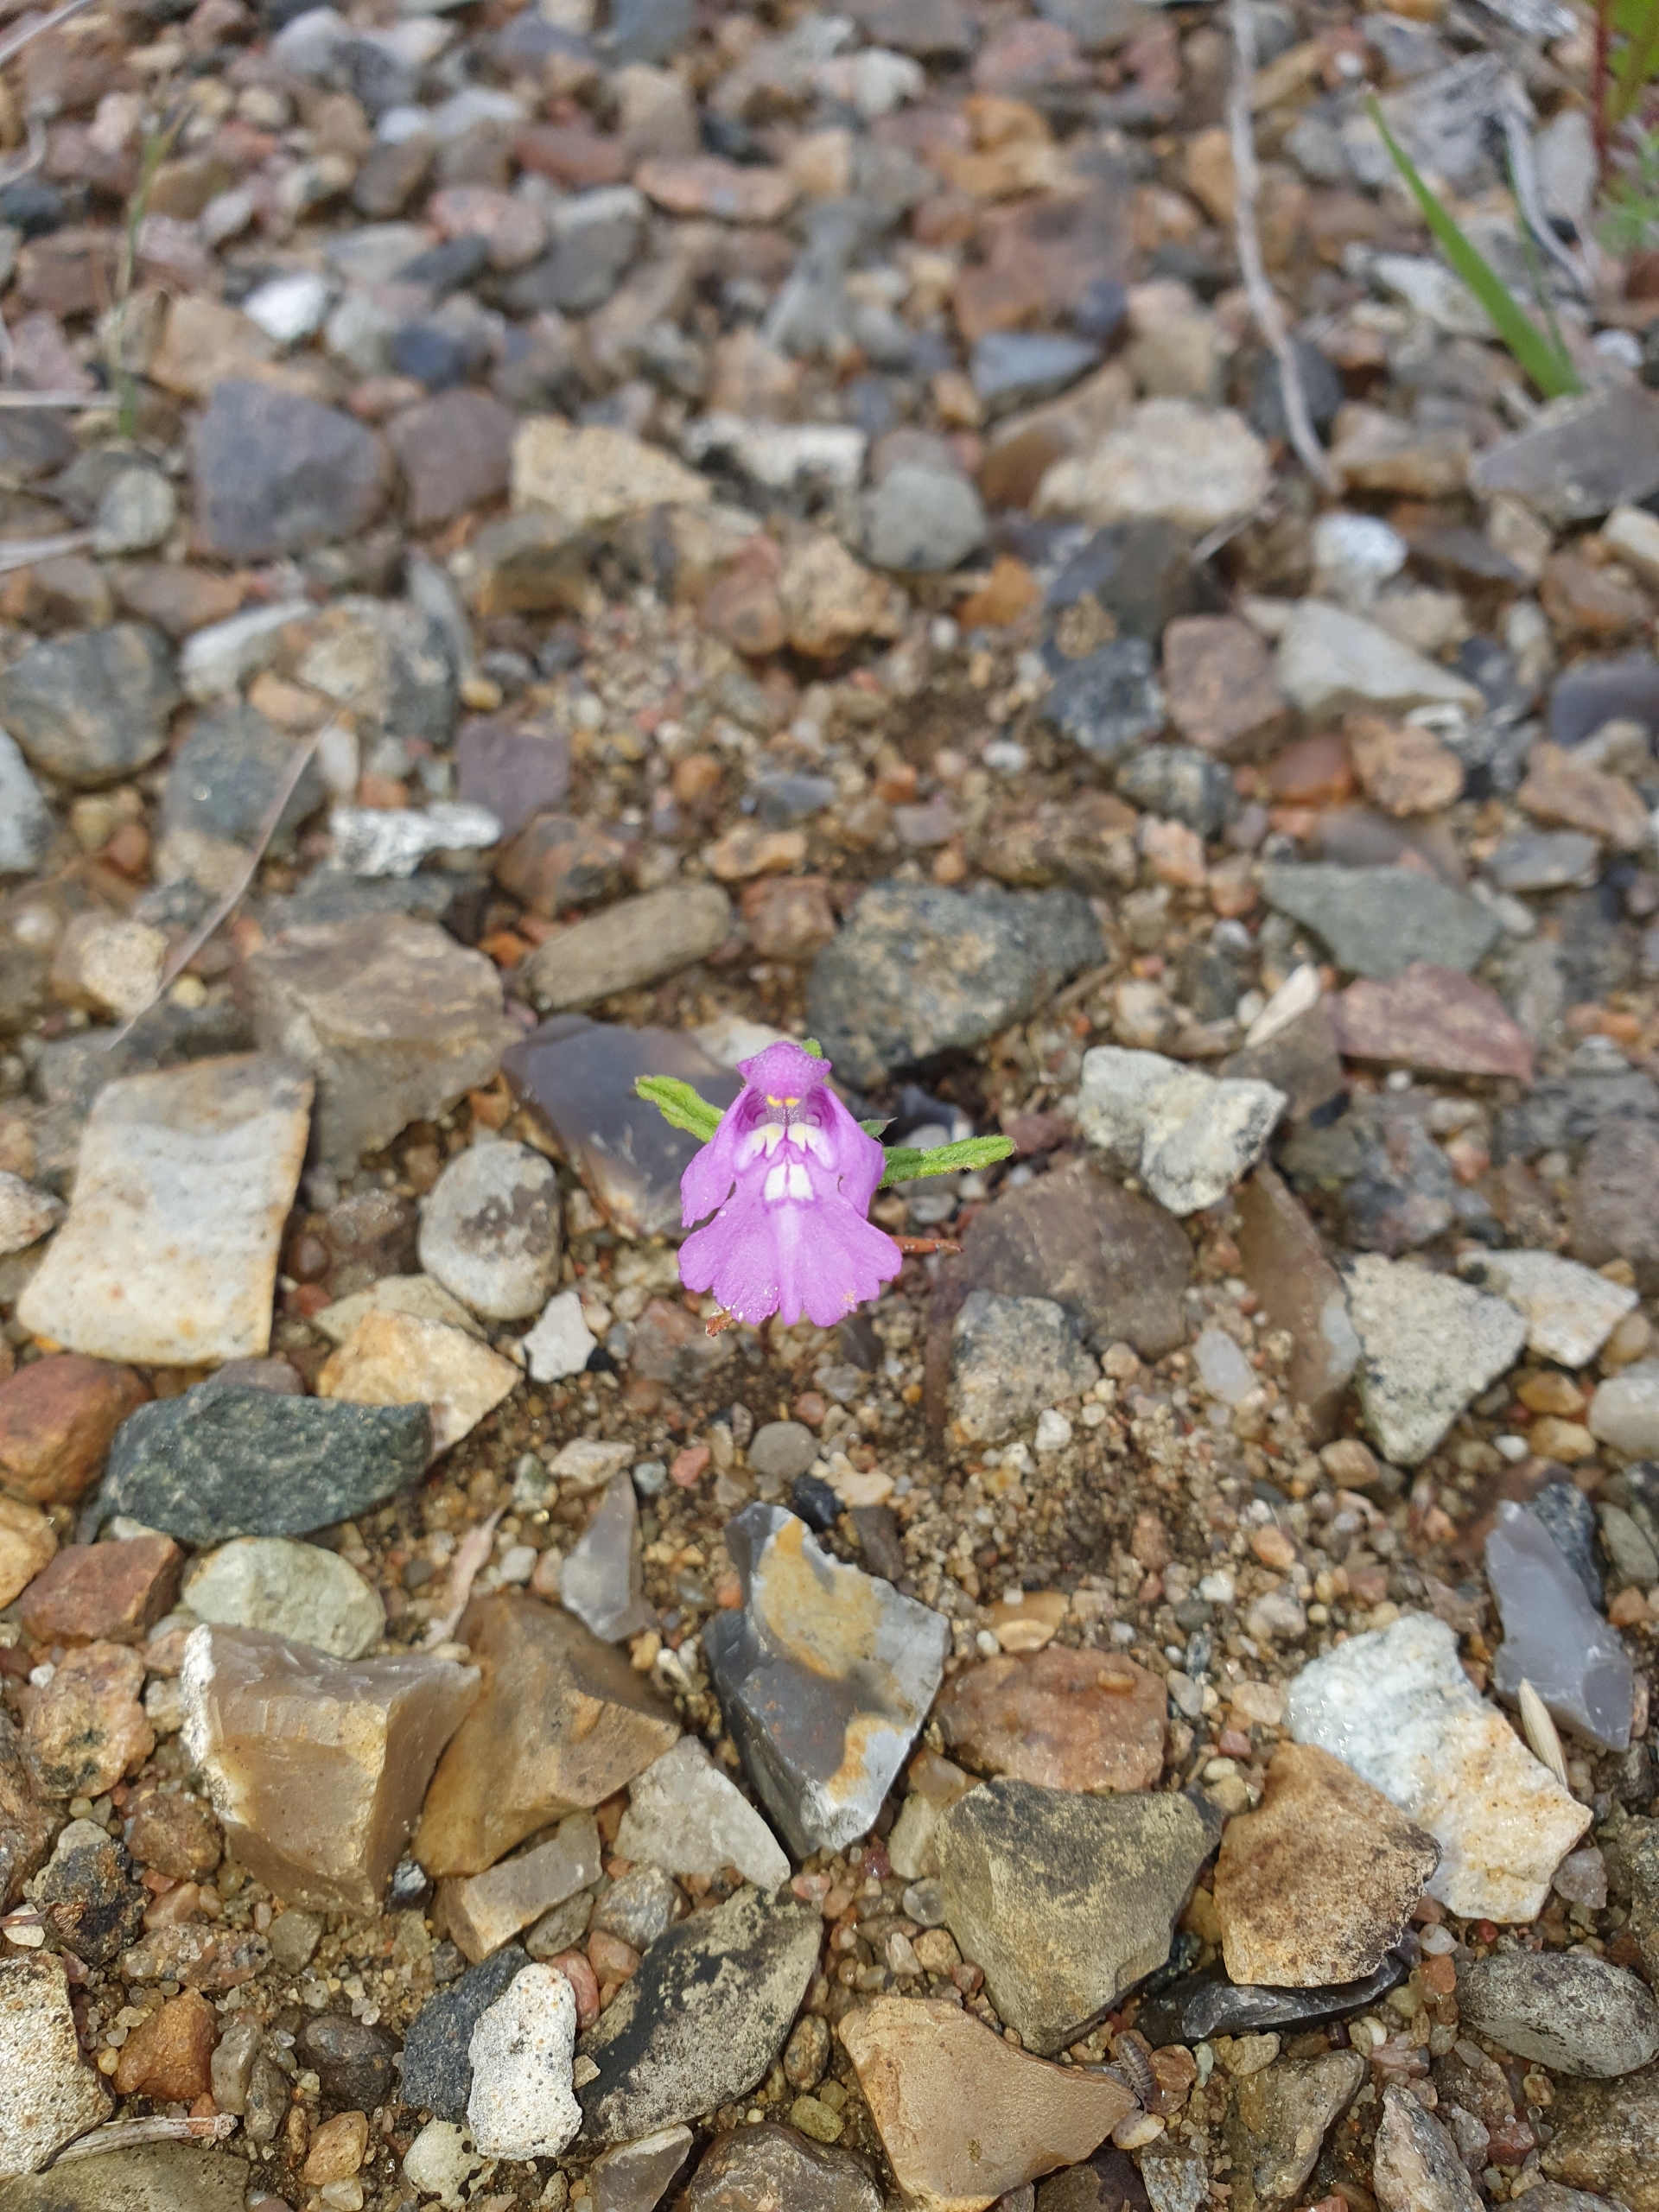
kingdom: Plantae
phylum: Tracheophyta
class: Magnoliopsida
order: Lamiales
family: Lamiaceae
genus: Galeopsis
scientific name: Galeopsis angustifolia
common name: Smalbladet hanekro
